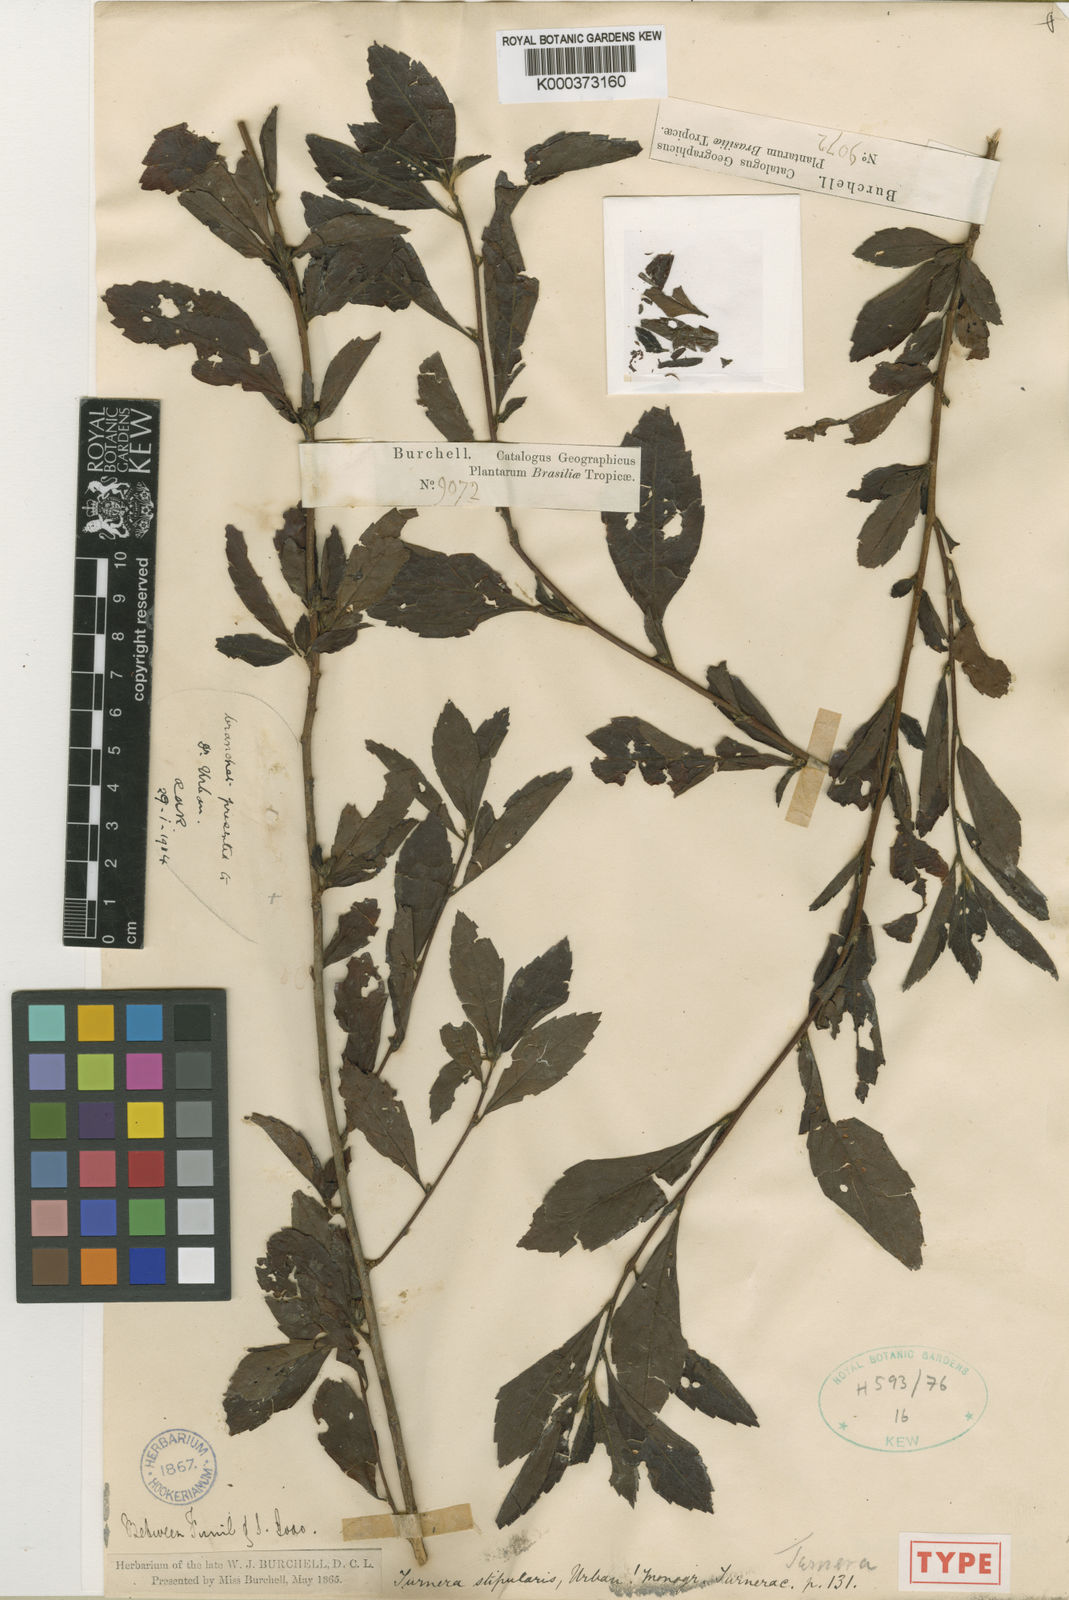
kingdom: Plantae
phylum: Tracheophyta
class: Magnoliopsida
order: Malpighiales
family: Turneraceae
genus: Turnera
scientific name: Turnera stipularis
